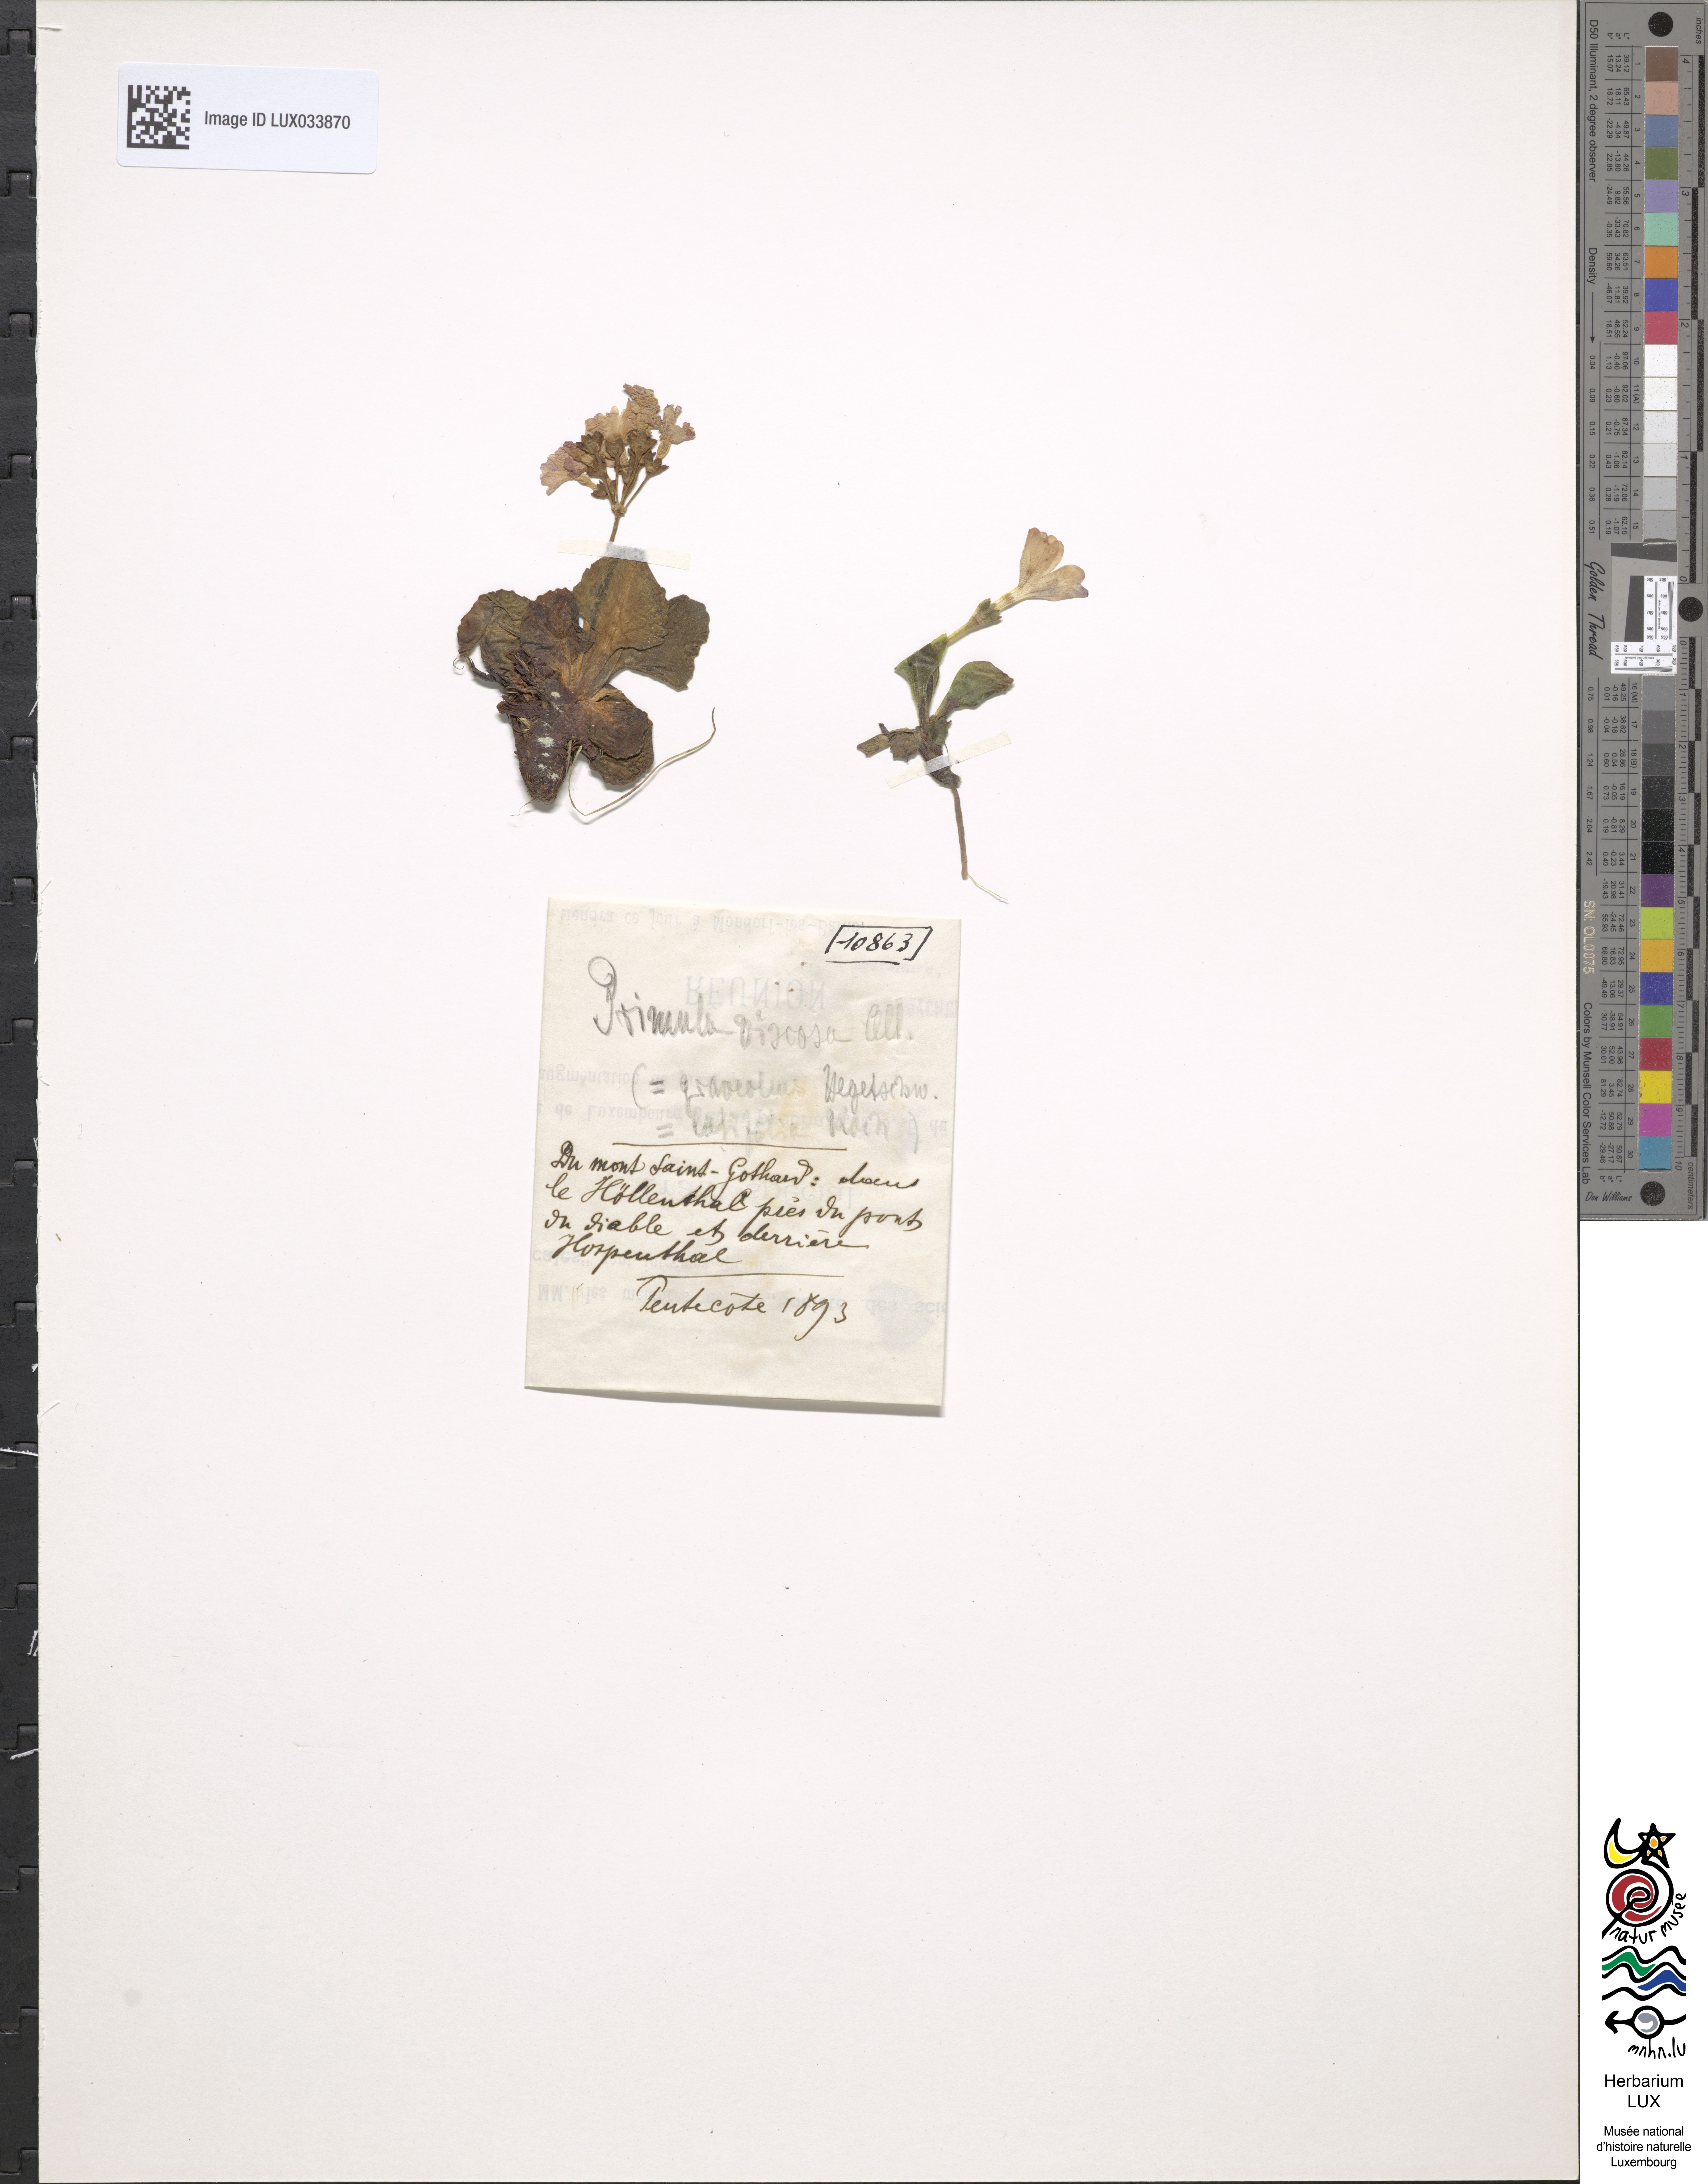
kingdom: Plantae
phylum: Tracheophyta
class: Magnoliopsida
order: Ericales
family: Primulaceae
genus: Primula
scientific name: Primula latifolia
